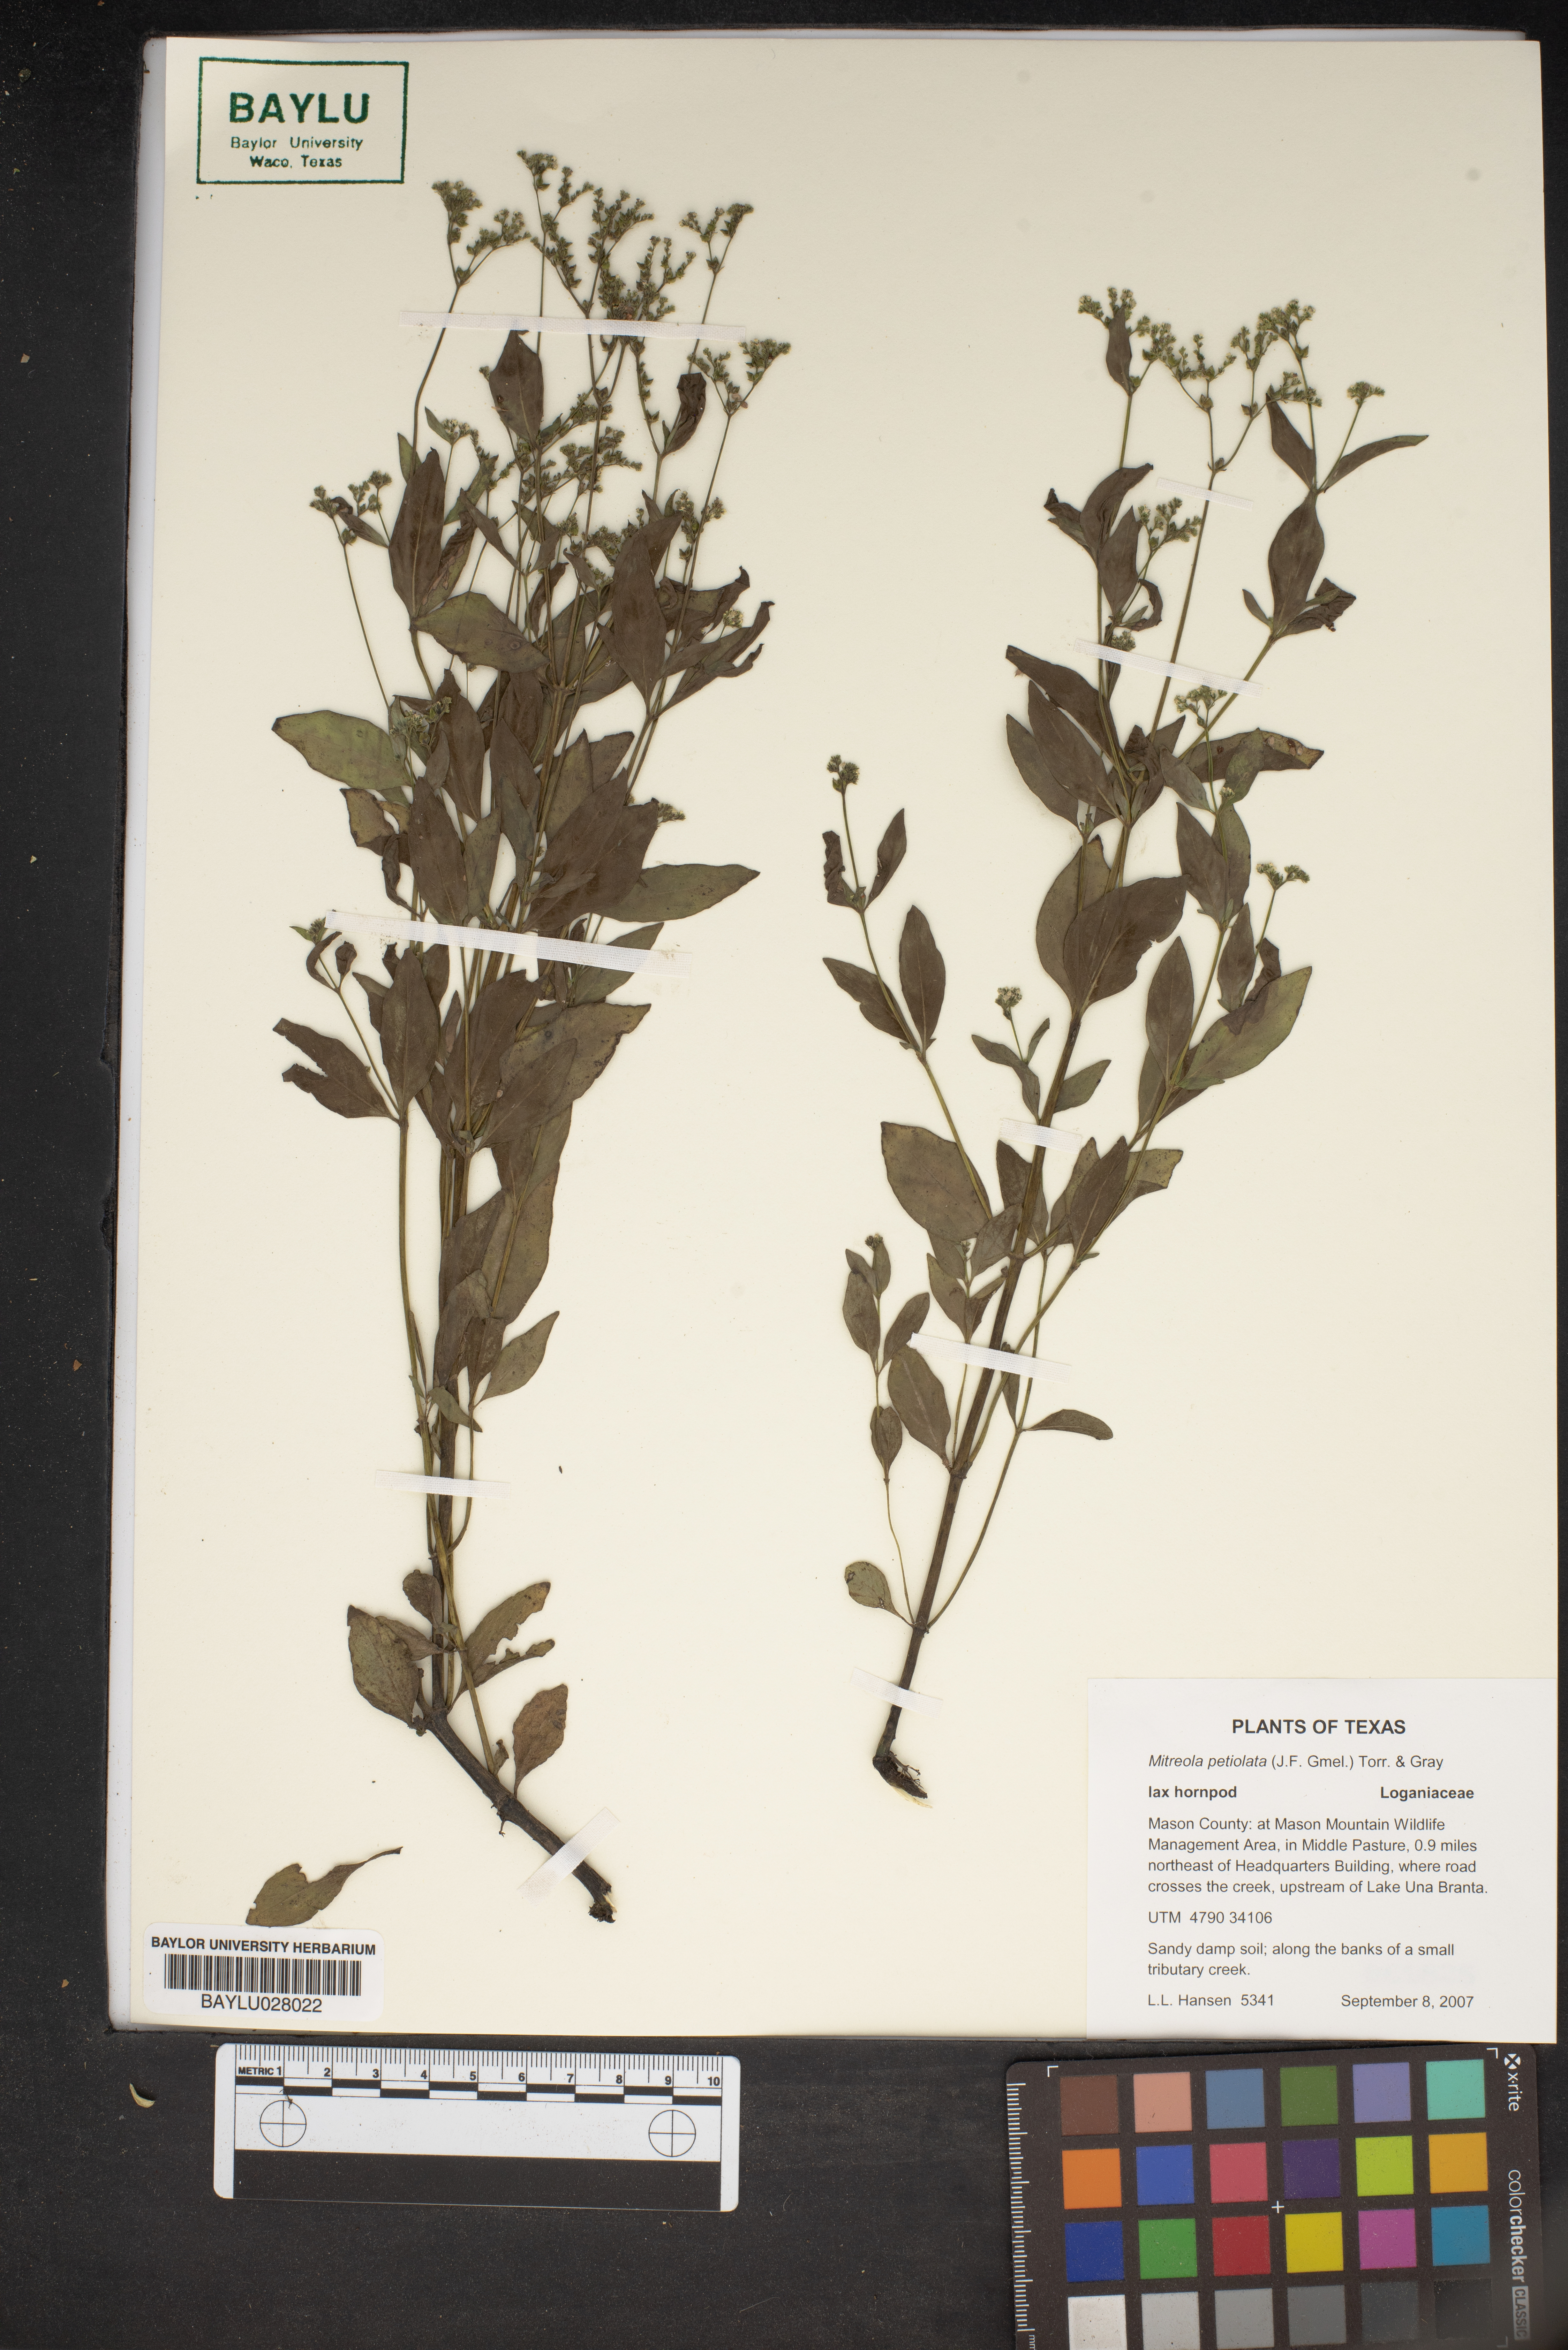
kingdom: Plantae
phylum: Tracheophyta
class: Magnoliopsida
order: Gentianales
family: Loganiaceae
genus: Mitreola
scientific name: Mitreola petiolata
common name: Lax hornpod
